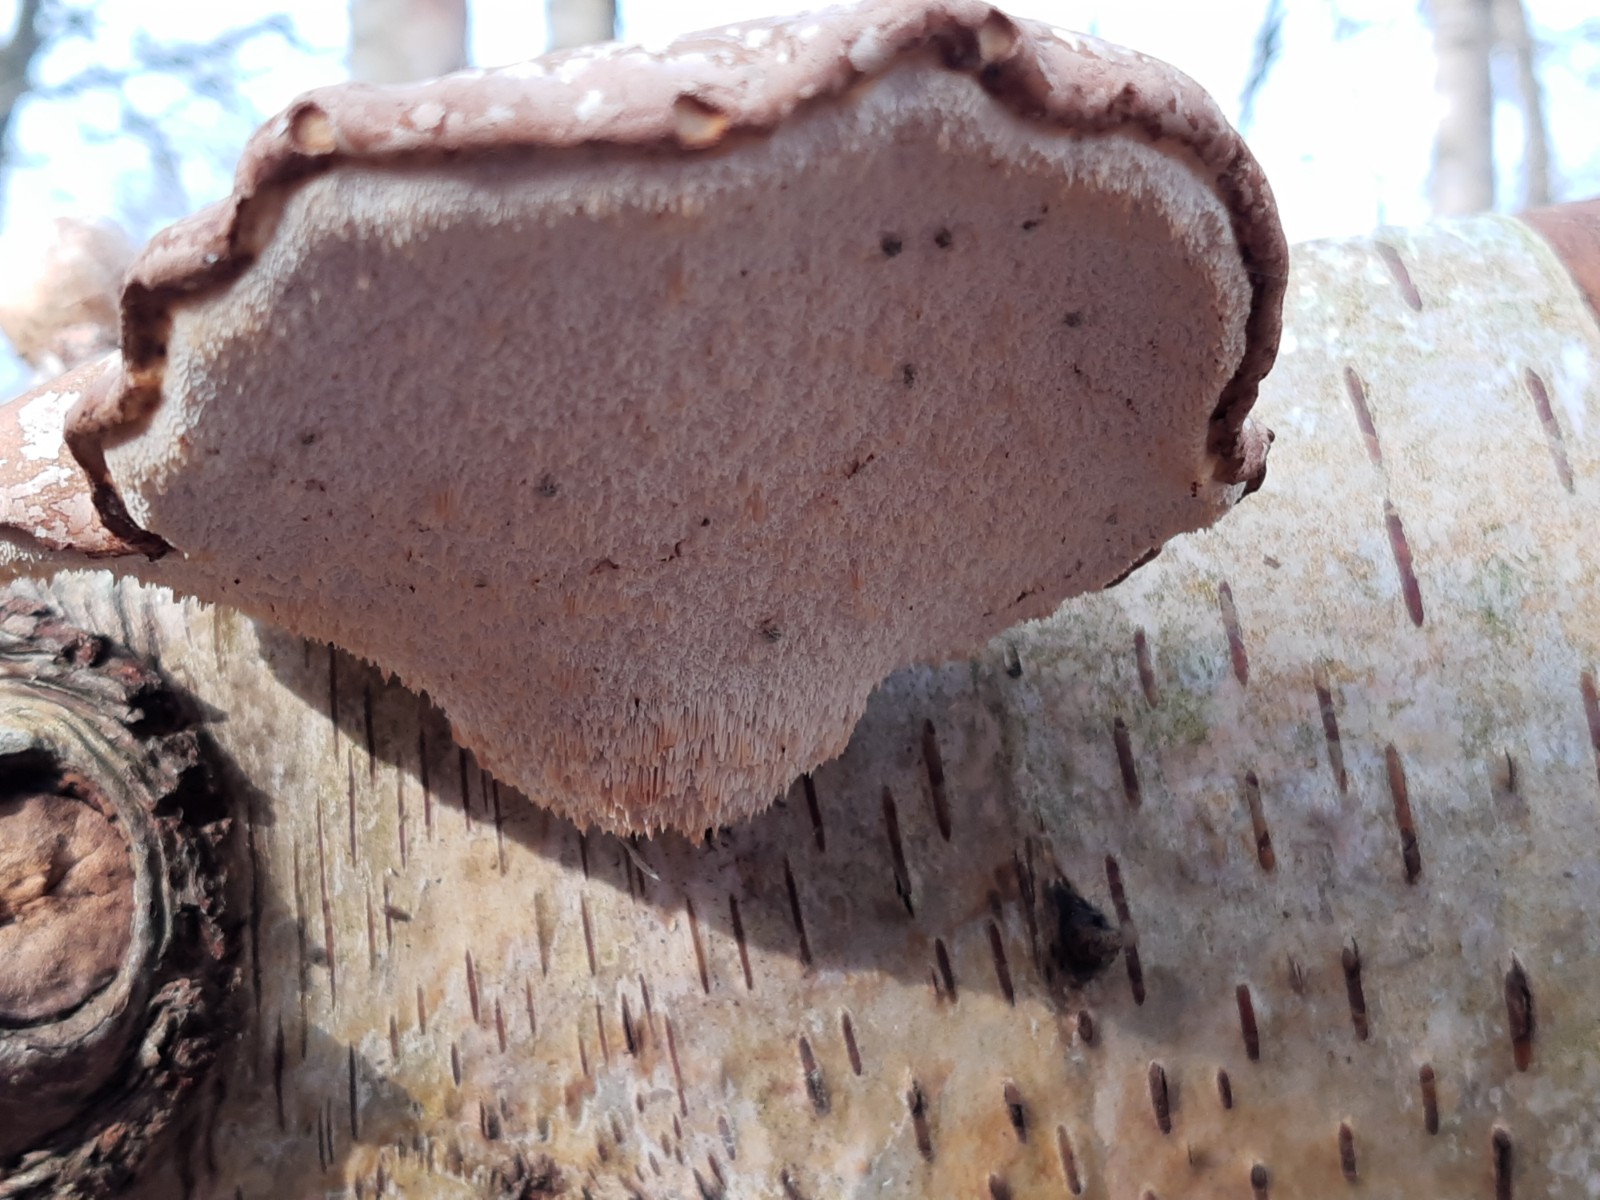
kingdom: Fungi
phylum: Basidiomycota
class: Agaricomycetes
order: Polyporales
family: Fomitopsidaceae
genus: Fomitopsis
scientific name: Fomitopsis betulina
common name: birkeporesvamp
